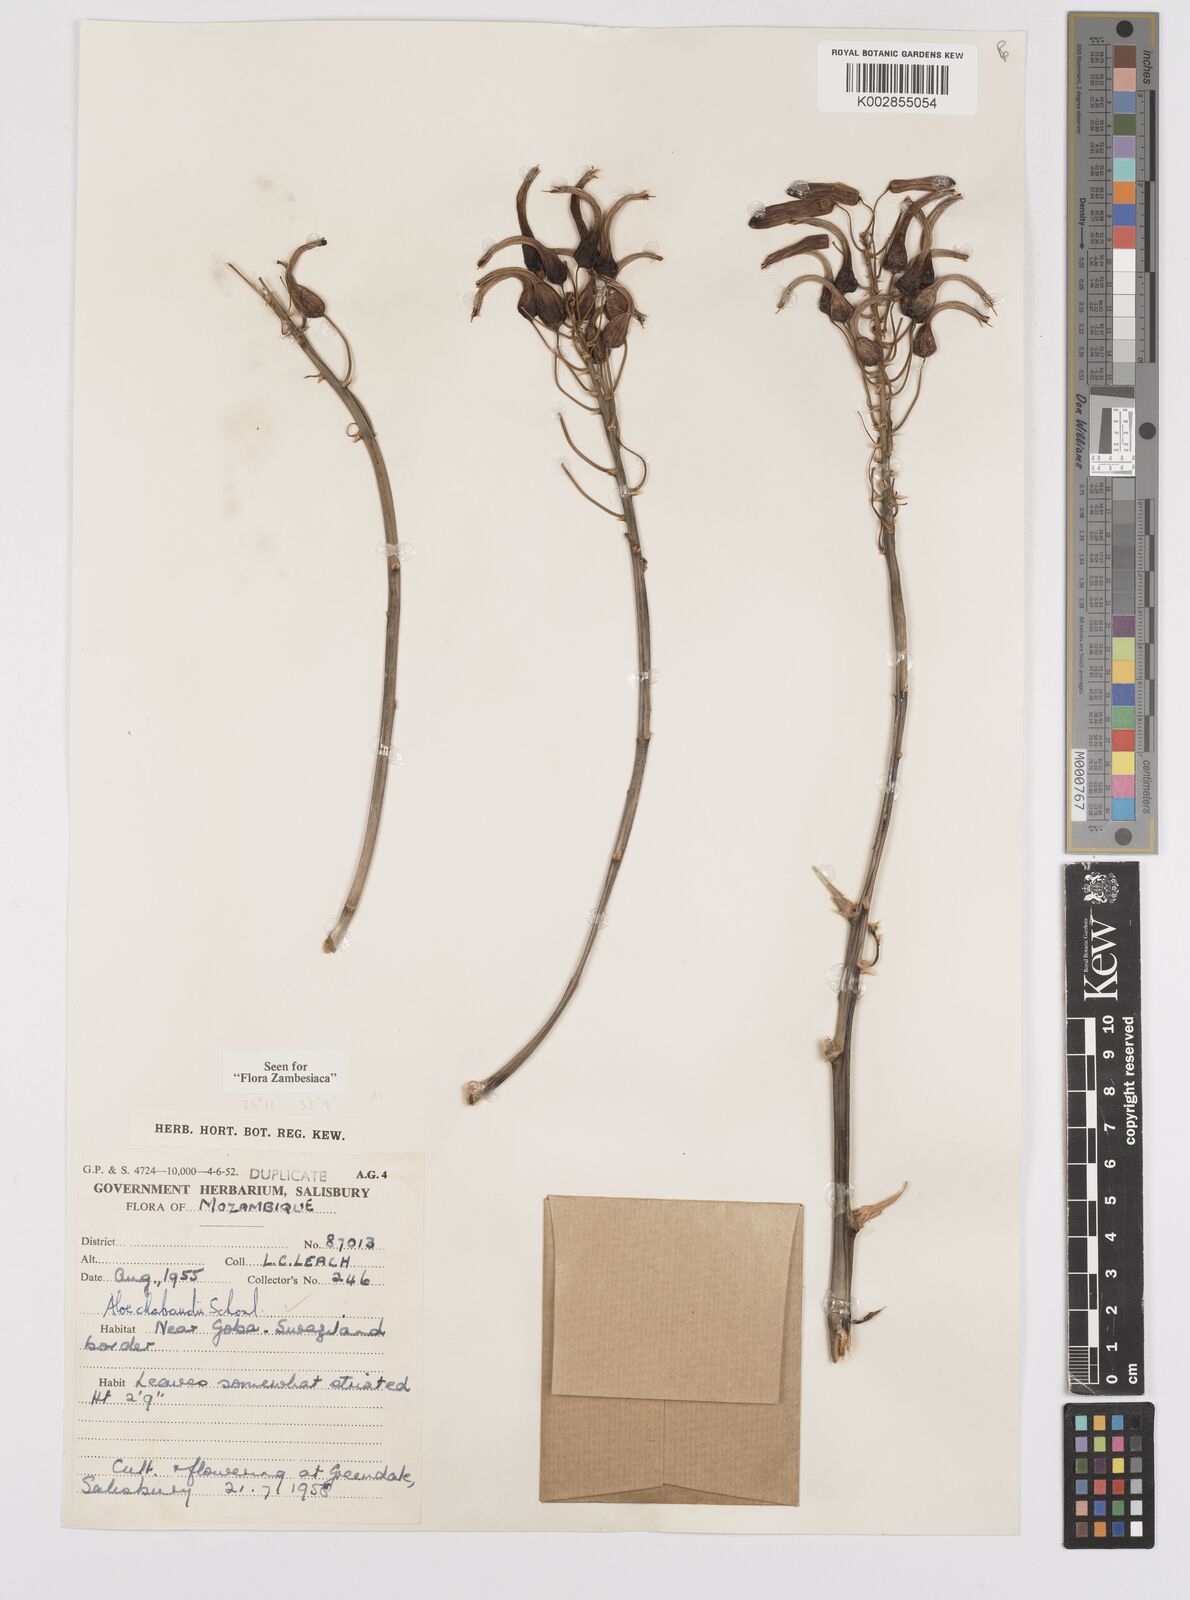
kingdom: Plantae
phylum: Tracheophyta
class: Liliopsida
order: Asparagales
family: Asphodelaceae
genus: Aloe
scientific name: Aloe chabaudii
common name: Chabaud's aloe
